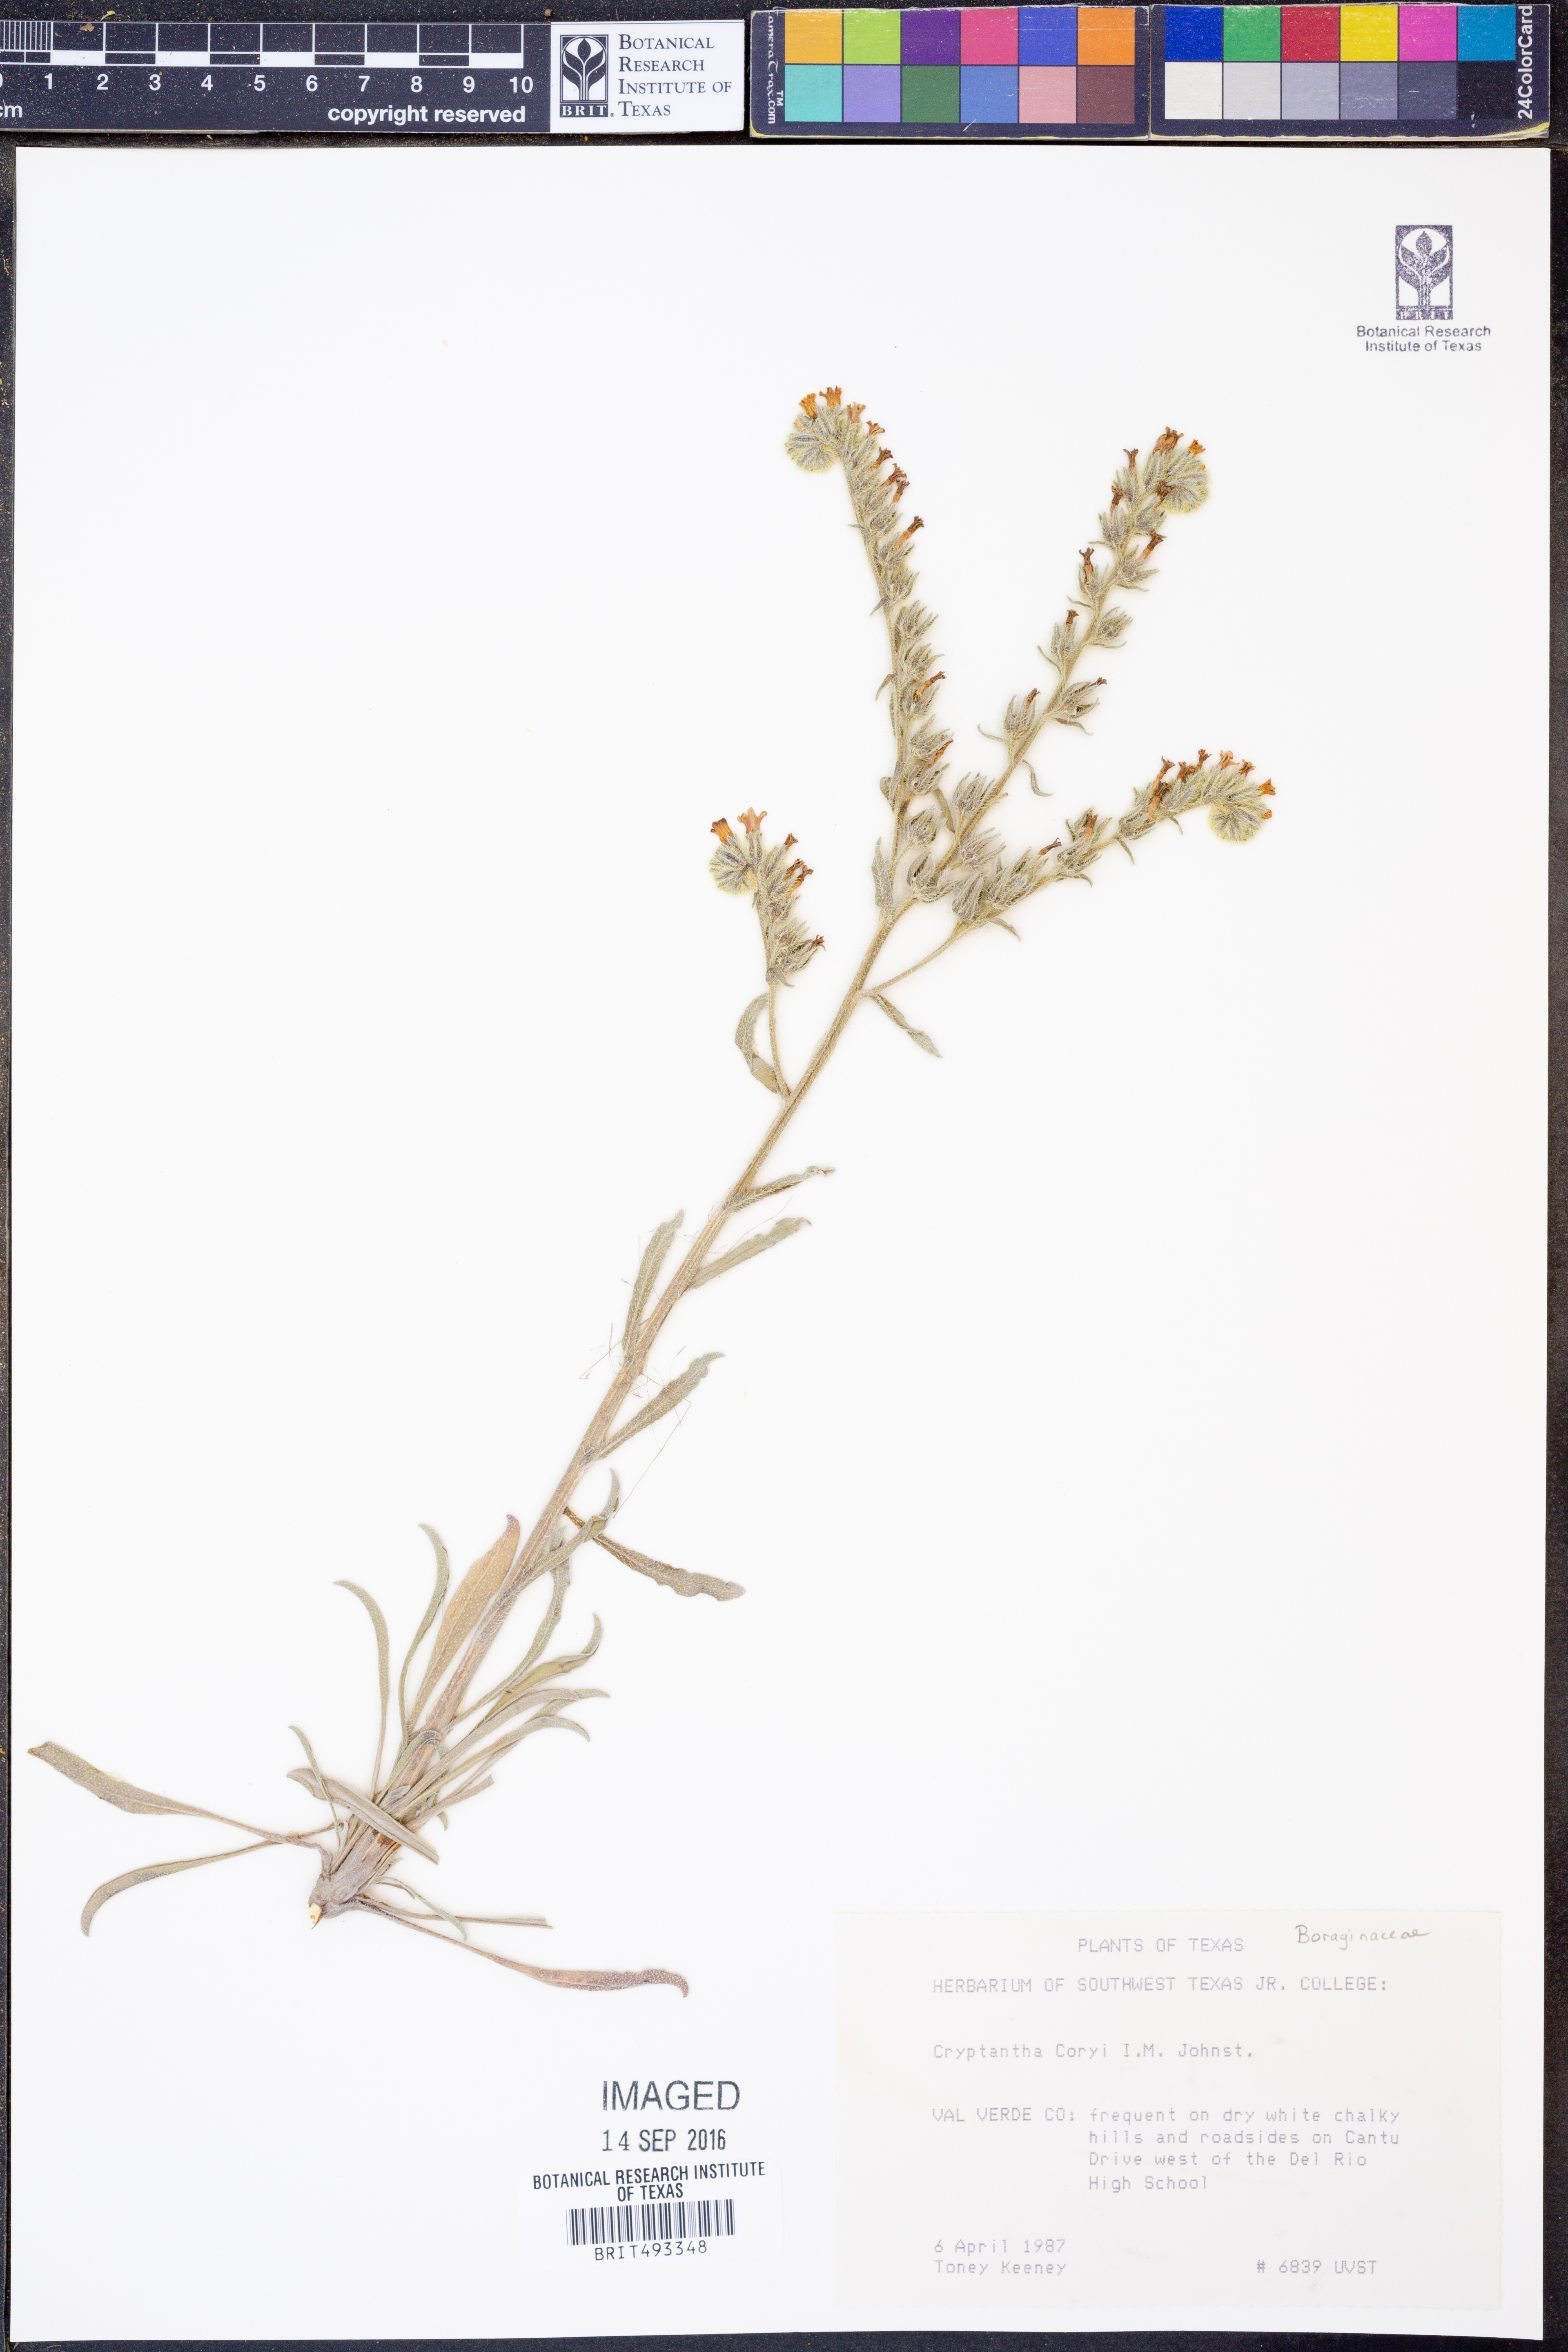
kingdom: Plantae
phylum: Tracheophyta
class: Magnoliopsida
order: Boraginales
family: Boraginaceae
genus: Oreocarya
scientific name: Oreocarya palmeri
